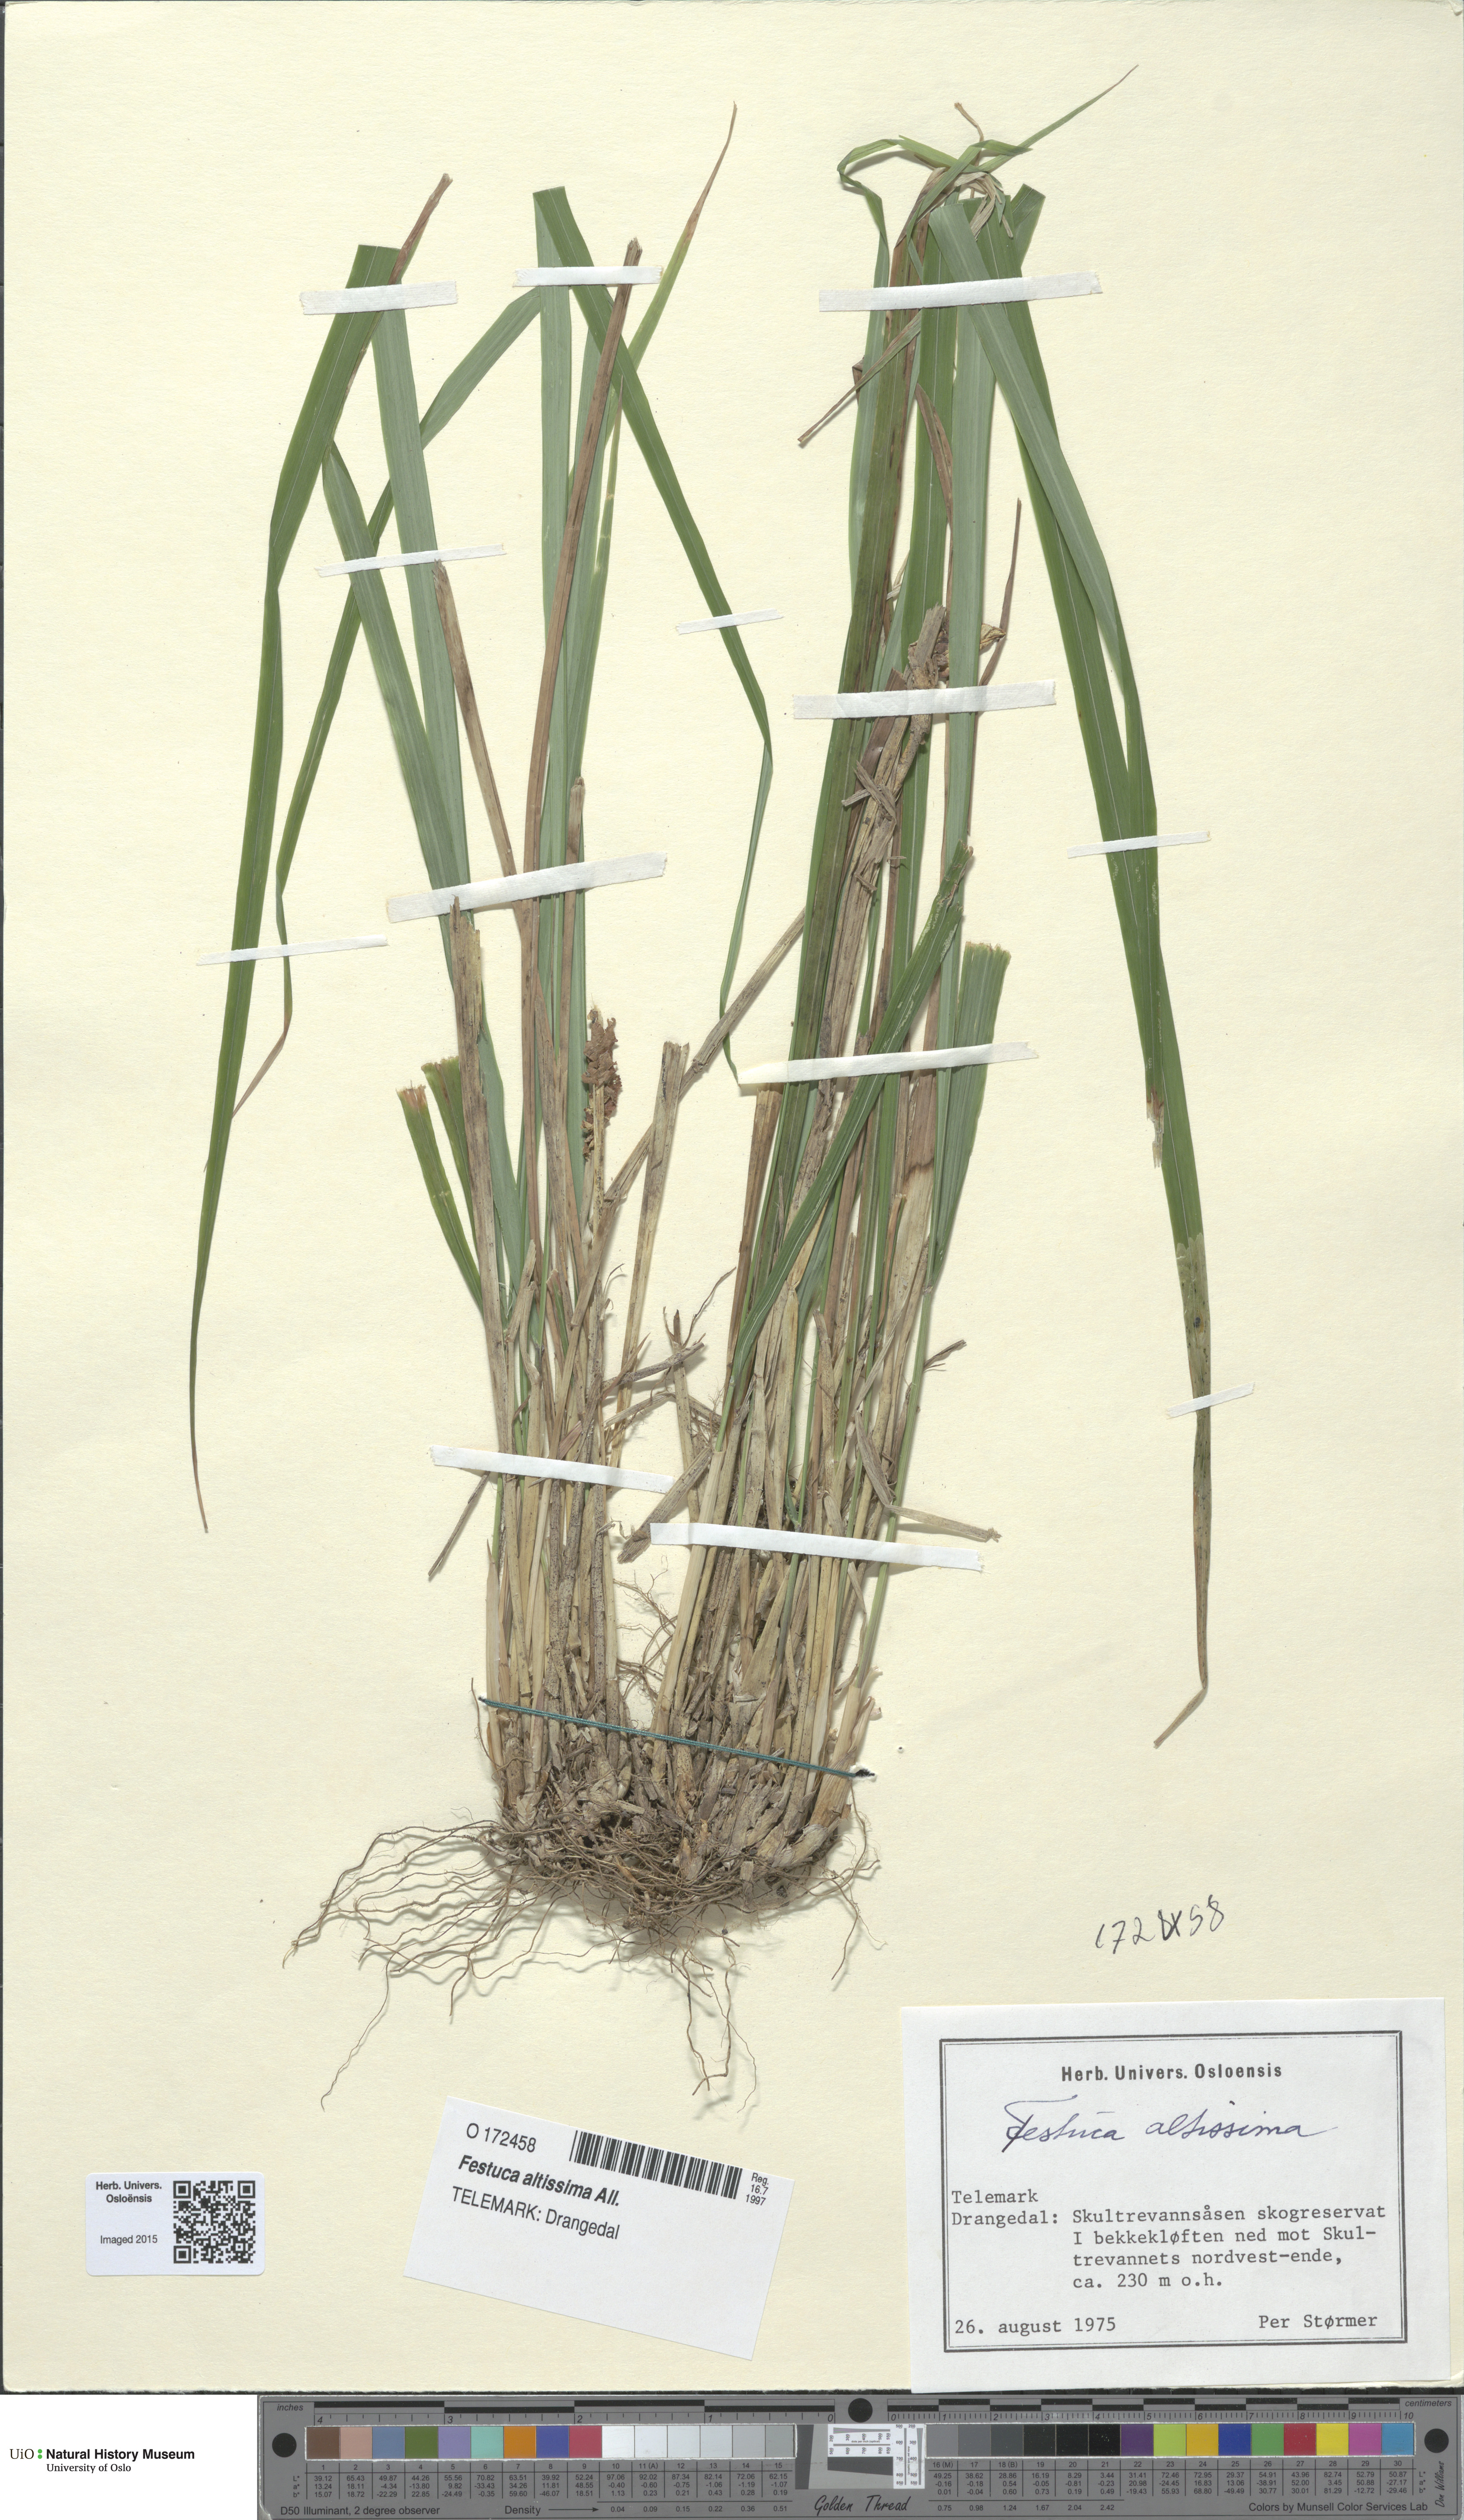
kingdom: Plantae
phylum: Tracheophyta
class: Liliopsida
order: Poales
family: Poaceae
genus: Festuca
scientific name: Festuca altissima
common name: Wood fescue
